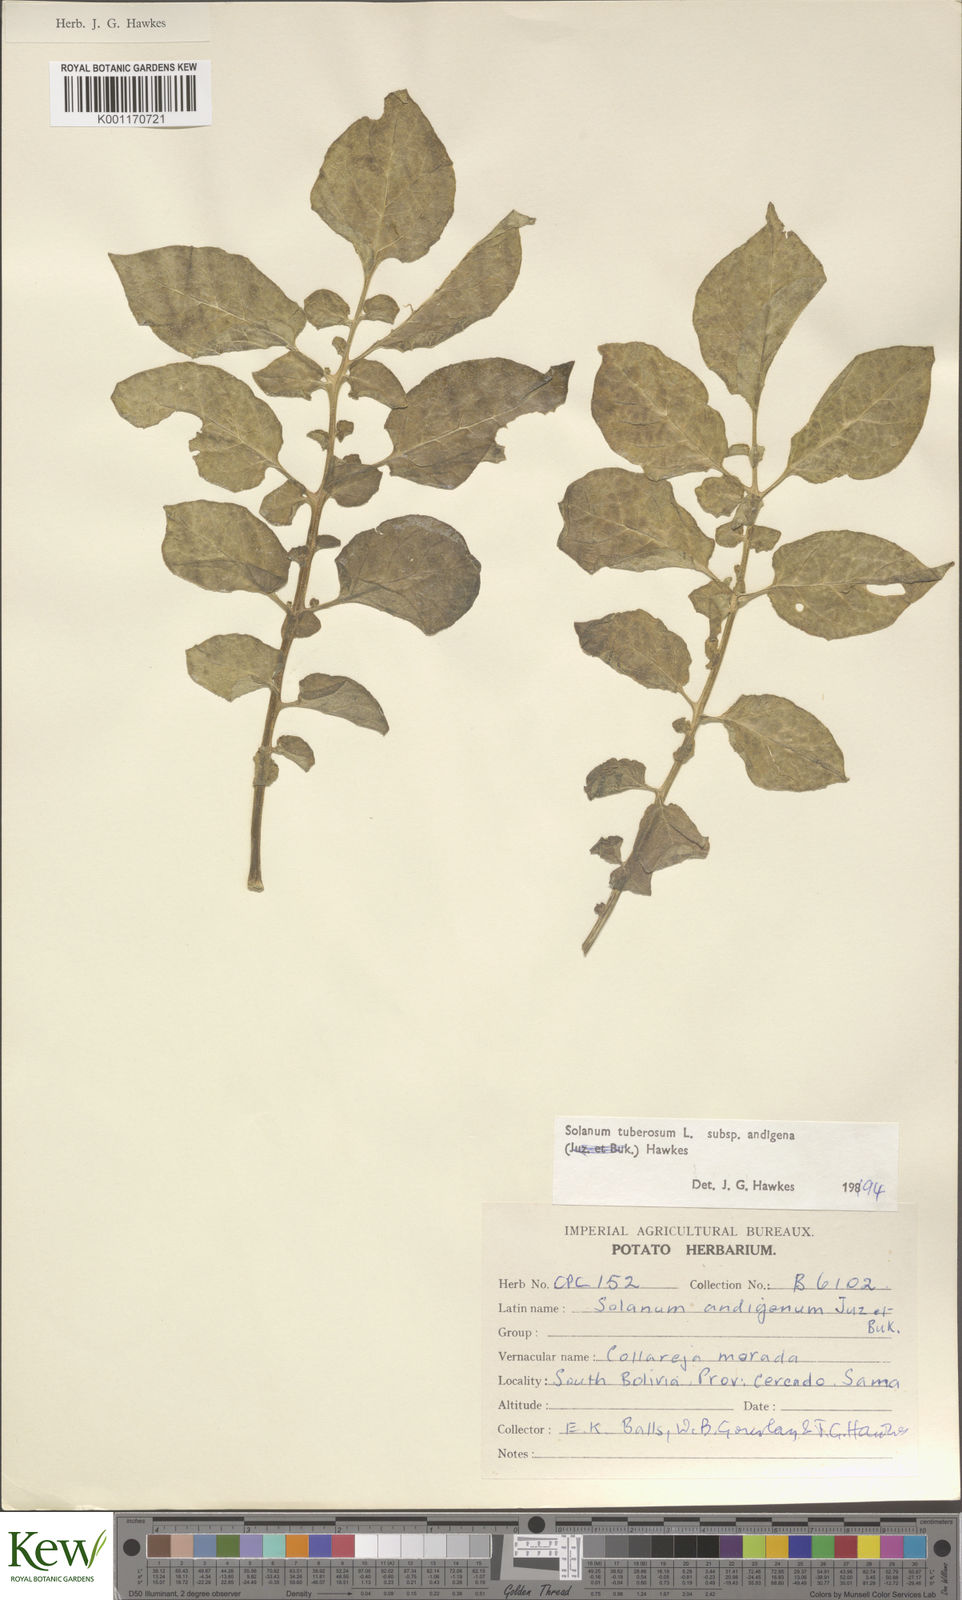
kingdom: Plantae
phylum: Tracheophyta
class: Magnoliopsida
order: Solanales
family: Solanaceae
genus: Solanum
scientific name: Solanum tuberosum
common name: Potato
